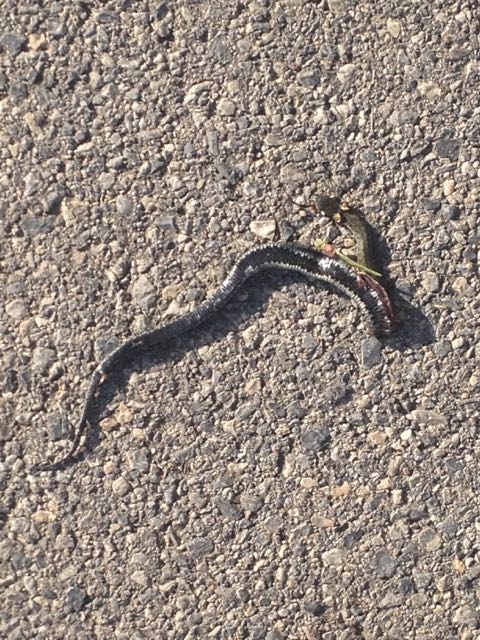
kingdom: Animalia
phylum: Chordata
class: Squamata
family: Colubridae
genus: Natrix
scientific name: Natrix natrix
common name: Grass snake
